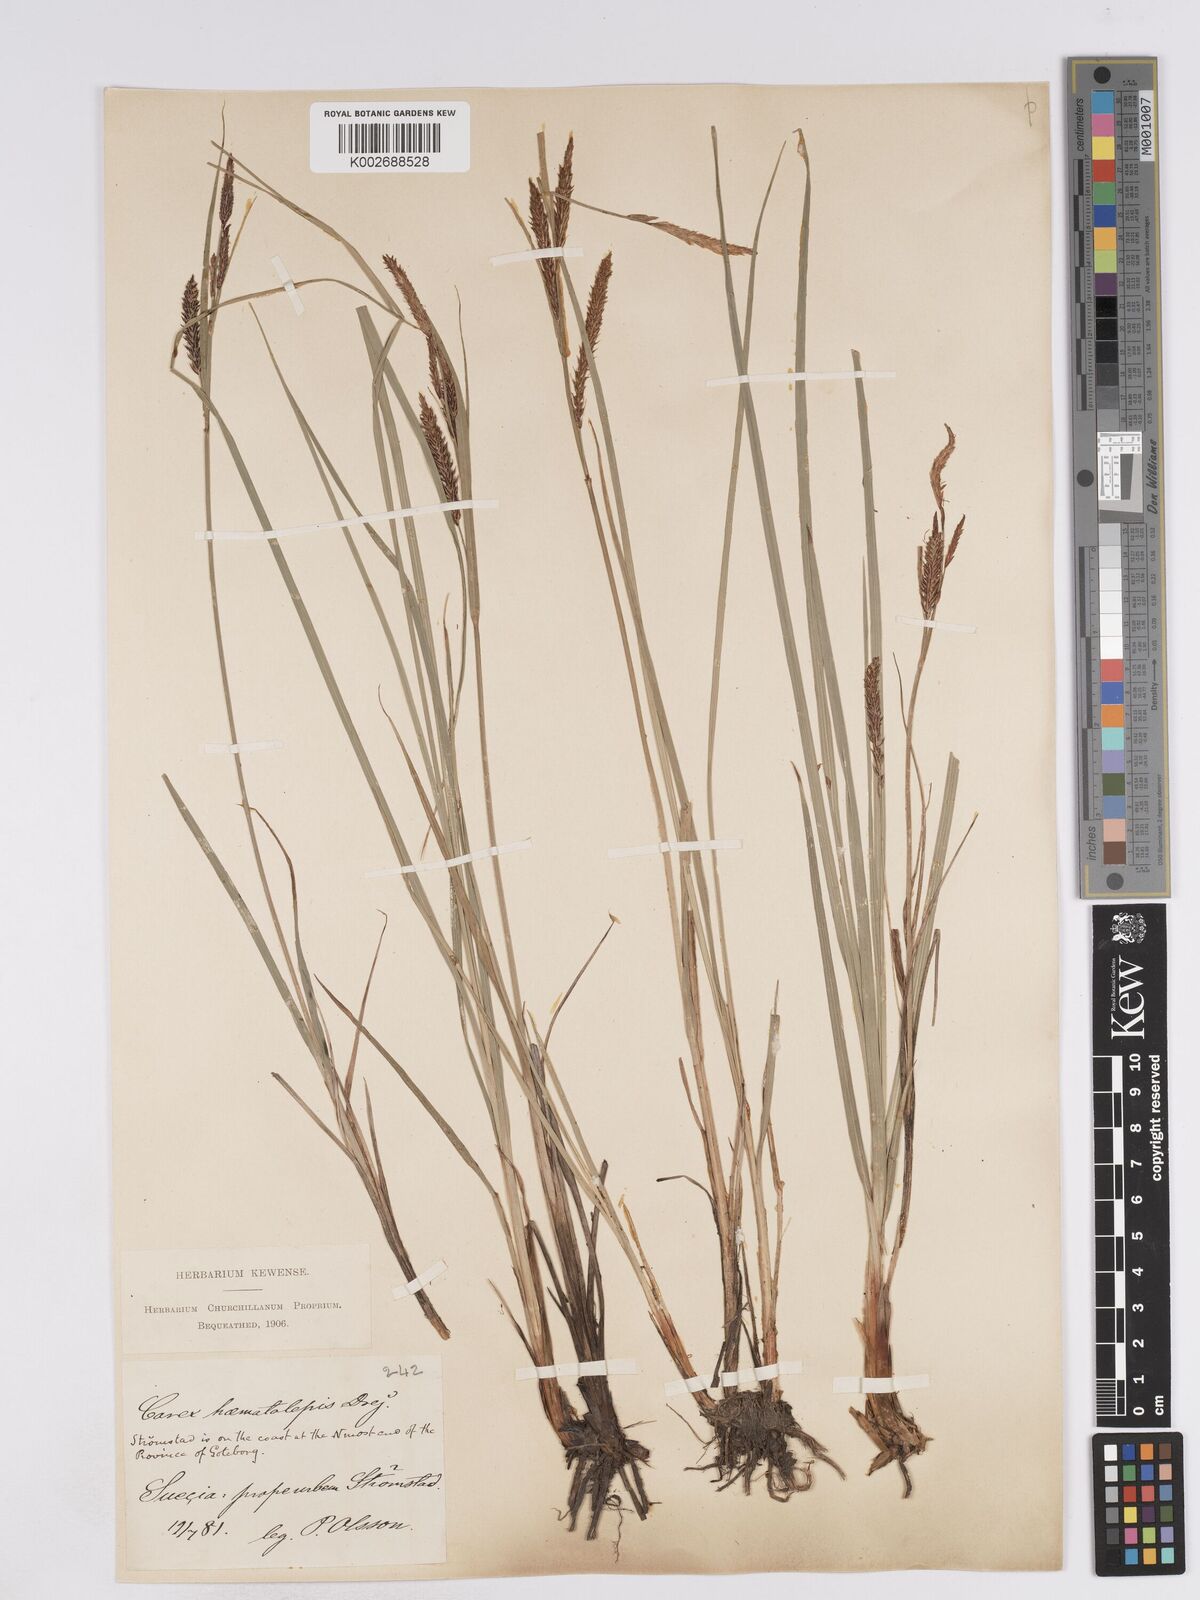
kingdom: Plantae
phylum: Tracheophyta
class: Liliopsida
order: Poales
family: Cyperaceae
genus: Carex
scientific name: Carex recta
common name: Estuarine sedge
